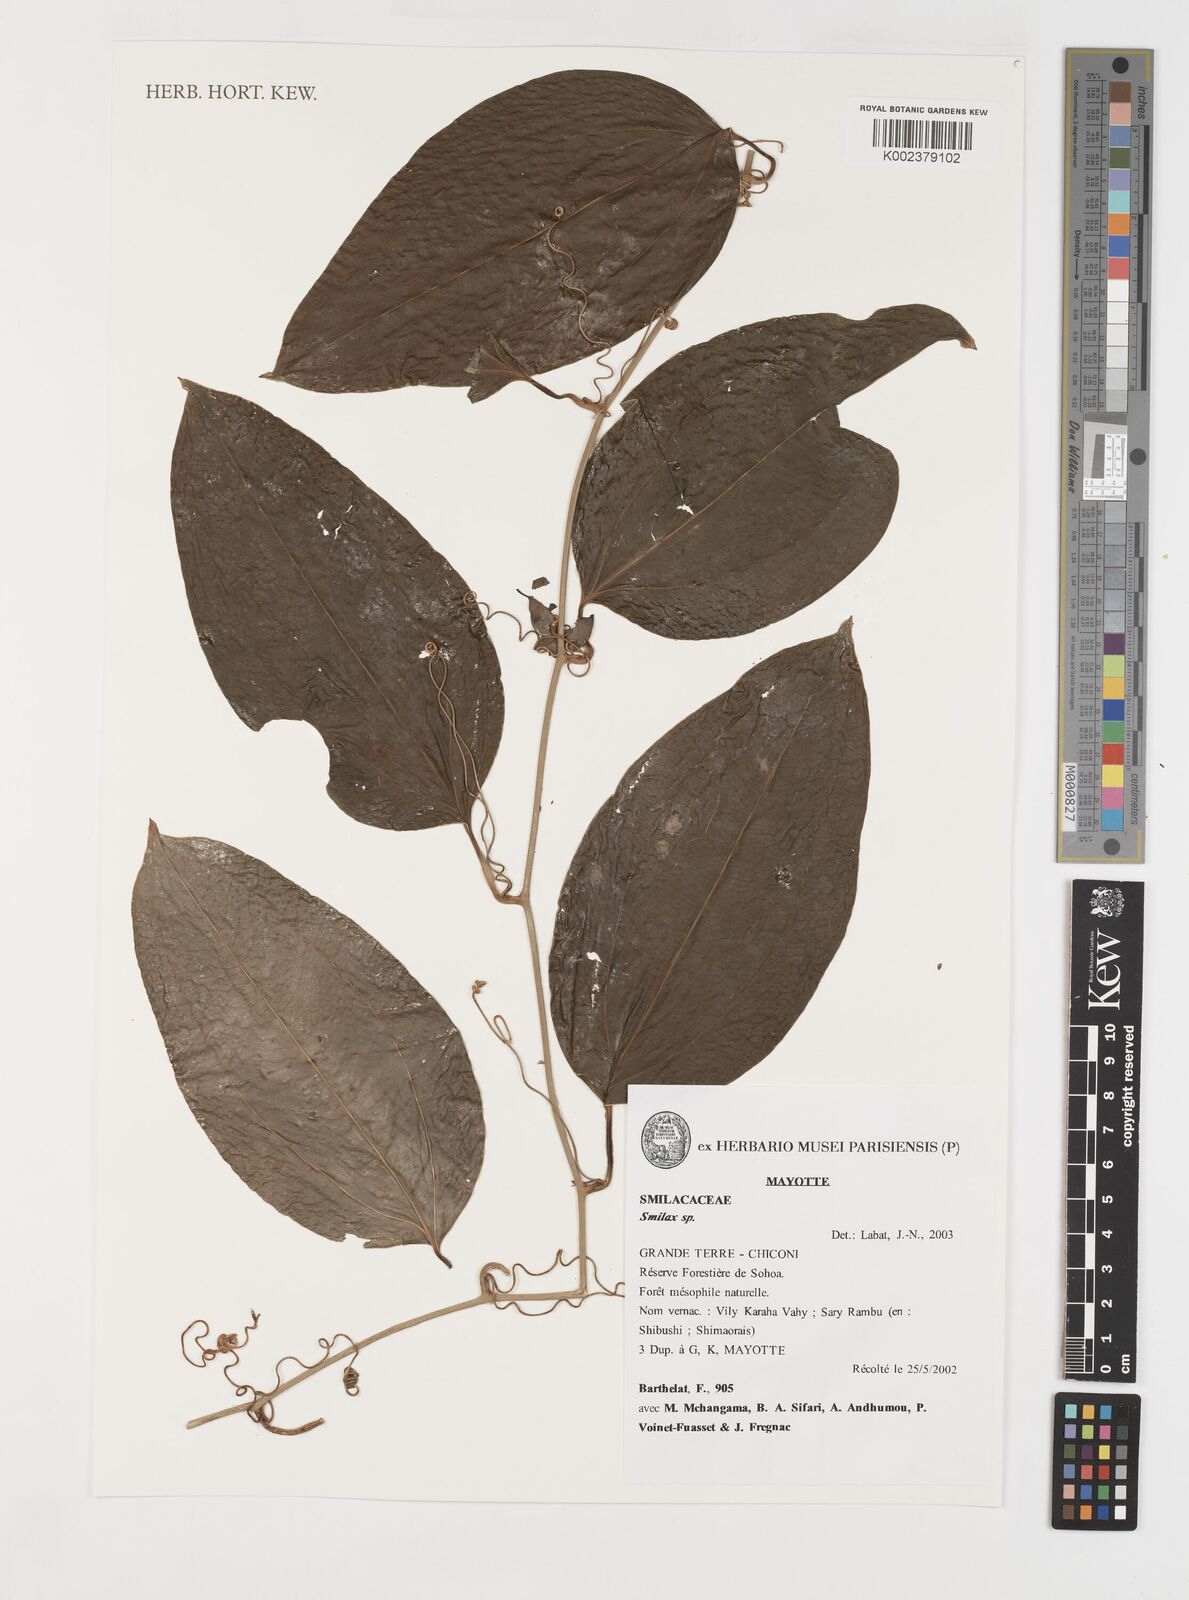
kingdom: Plantae
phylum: Tracheophyta
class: Liliopsida
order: Liliales
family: Smilacaceae
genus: Smilax
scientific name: Smilax anceps
